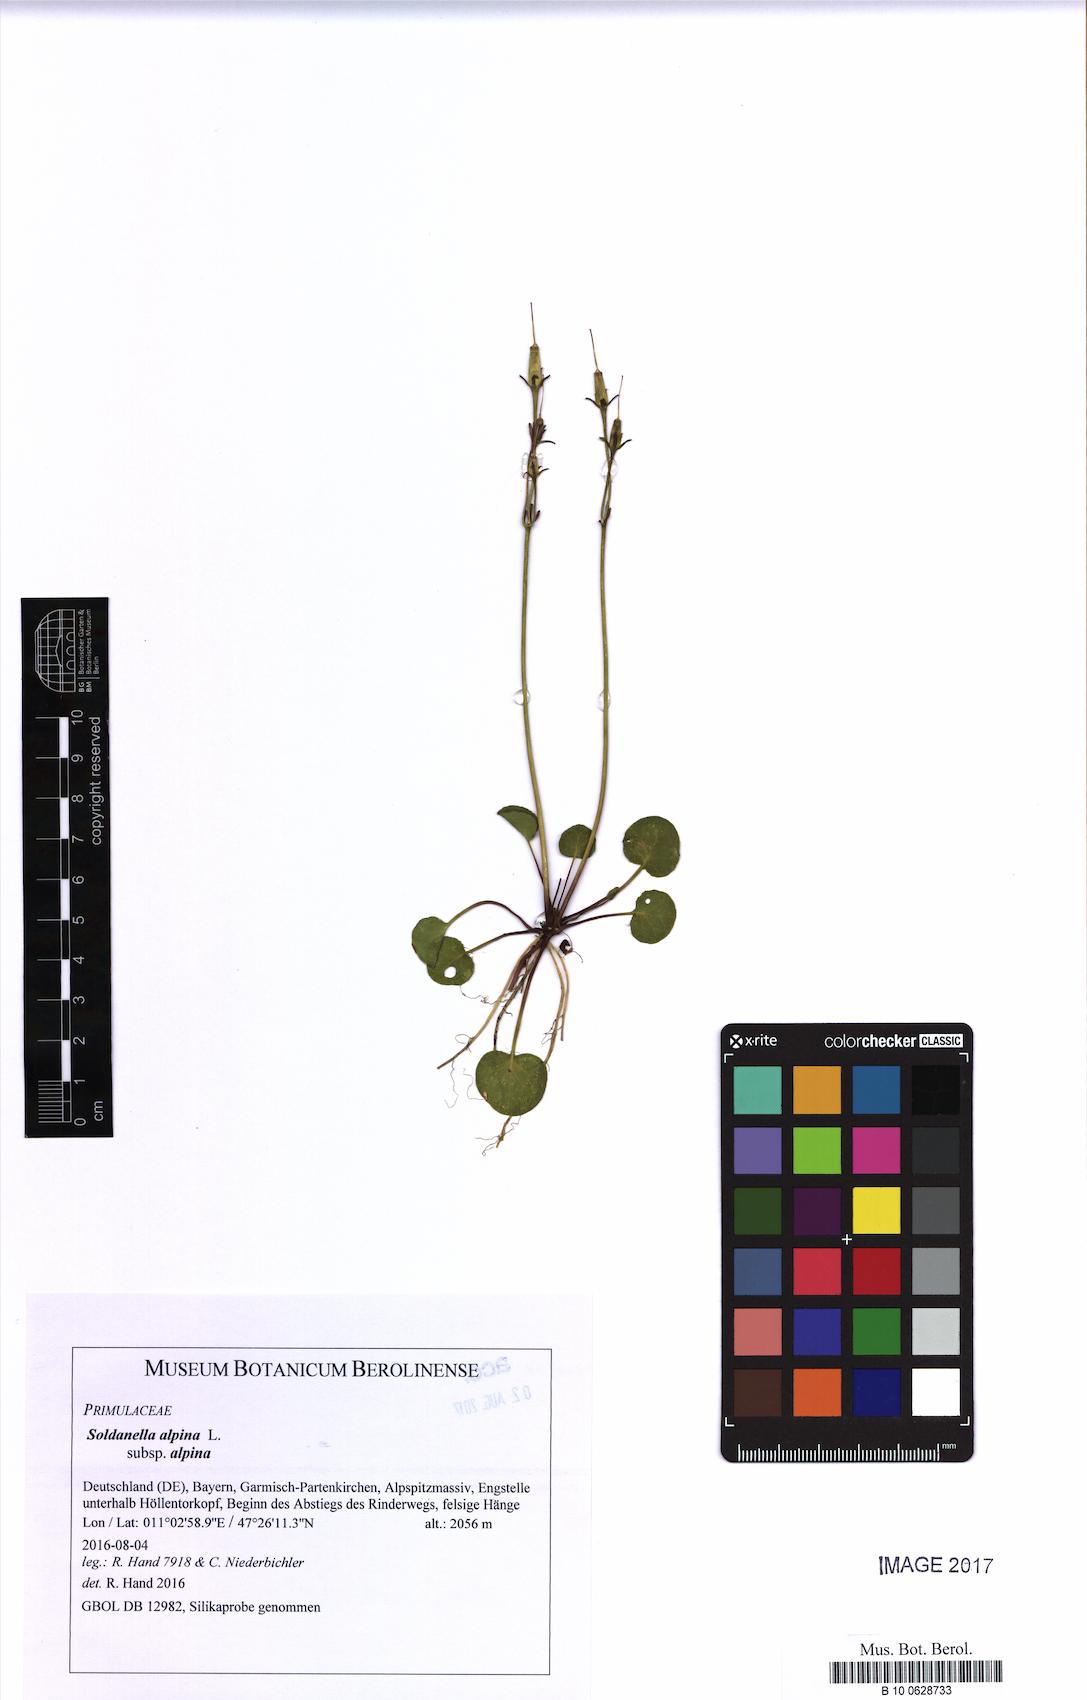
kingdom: Plantae
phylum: Tracheophyta
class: Magnoliopsida
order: Ericales
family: Primulaceae
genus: Soldanella
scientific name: Soldanella alpina
